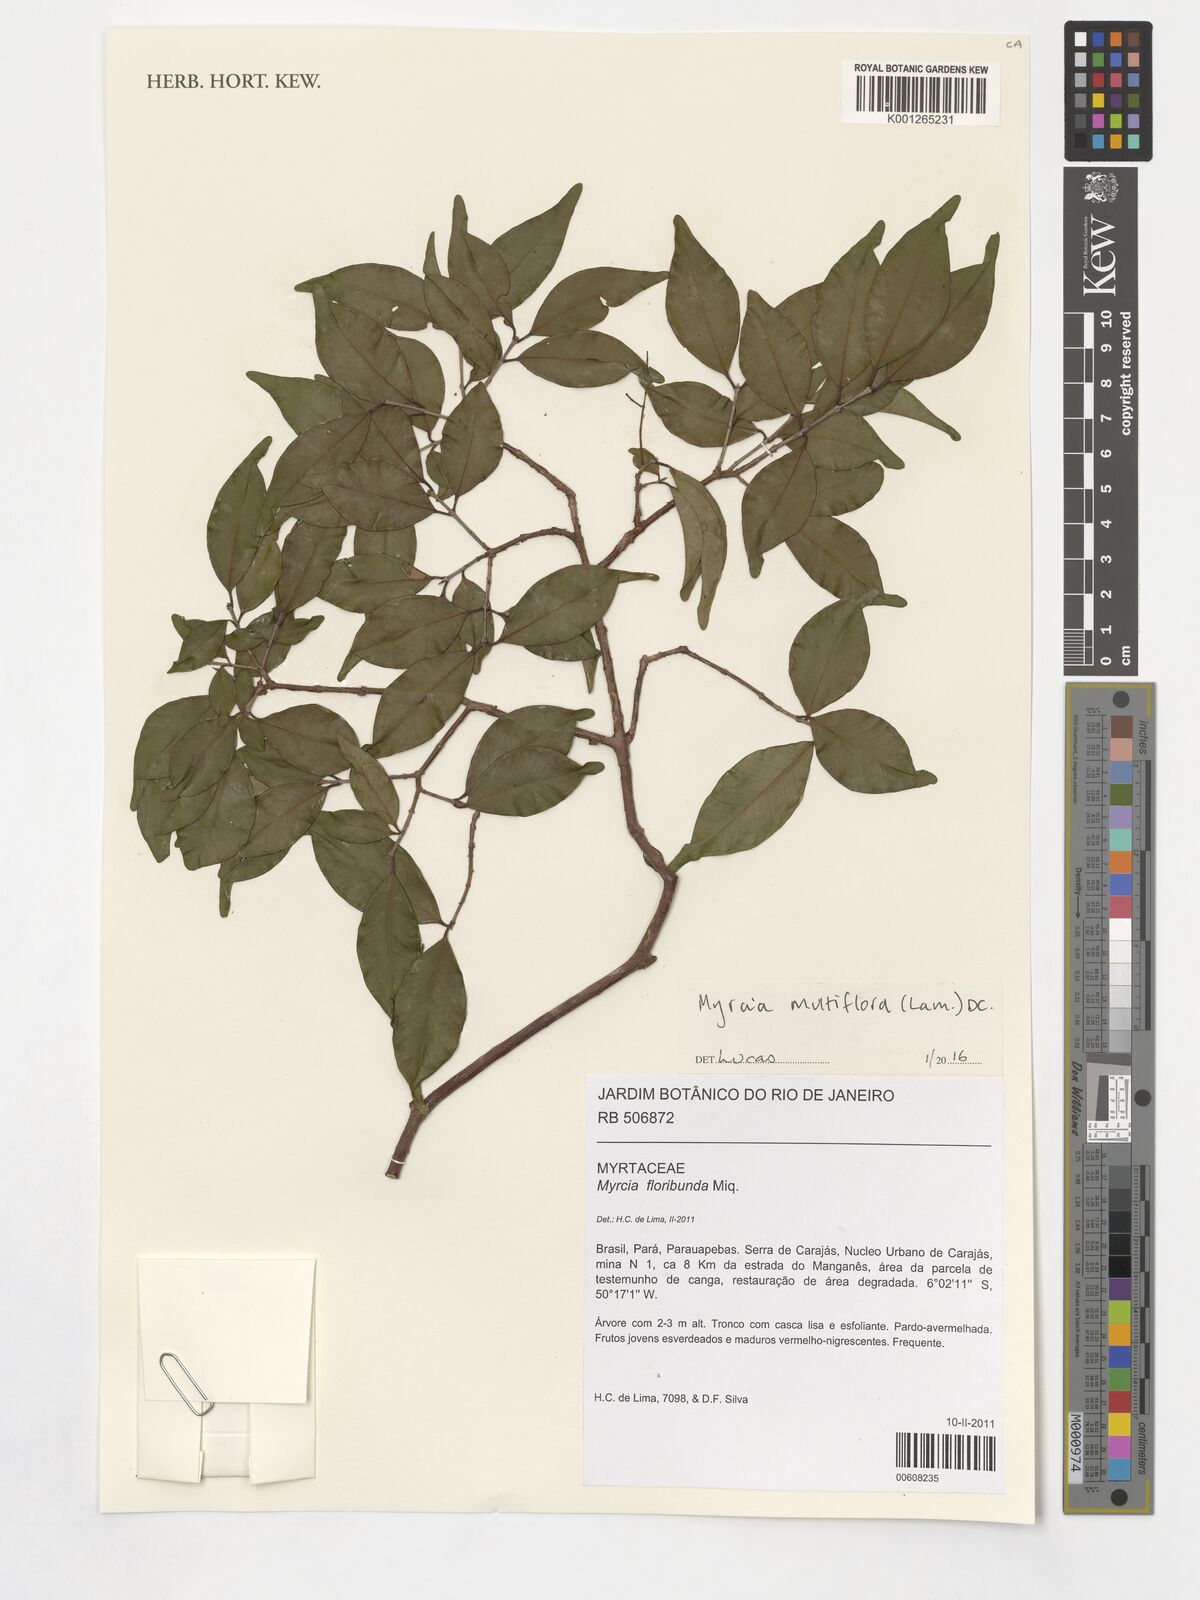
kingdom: Plantae
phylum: Tracheophyta
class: Magnoliopsida
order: Myrtales
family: Myrtaceae
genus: Myrcia
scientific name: Myrcia multiflora
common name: Pedra hume
